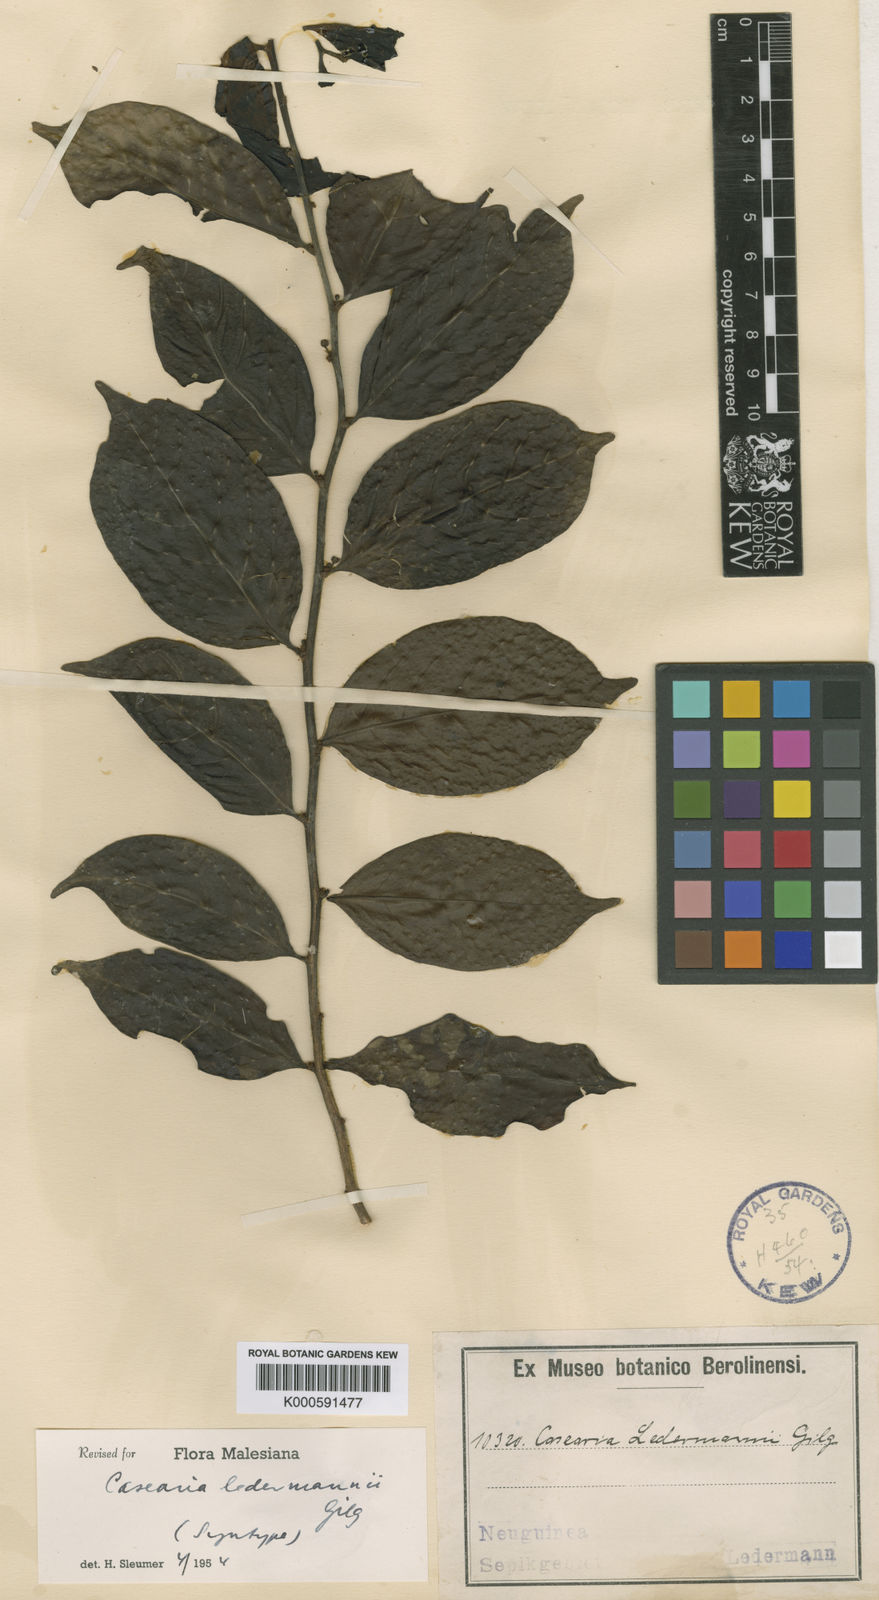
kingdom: Plantae
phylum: Tracheophyta
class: Magnoliopsida
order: Malpighiales
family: Salicaceae
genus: Casearia
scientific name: Casearia ledermannii
